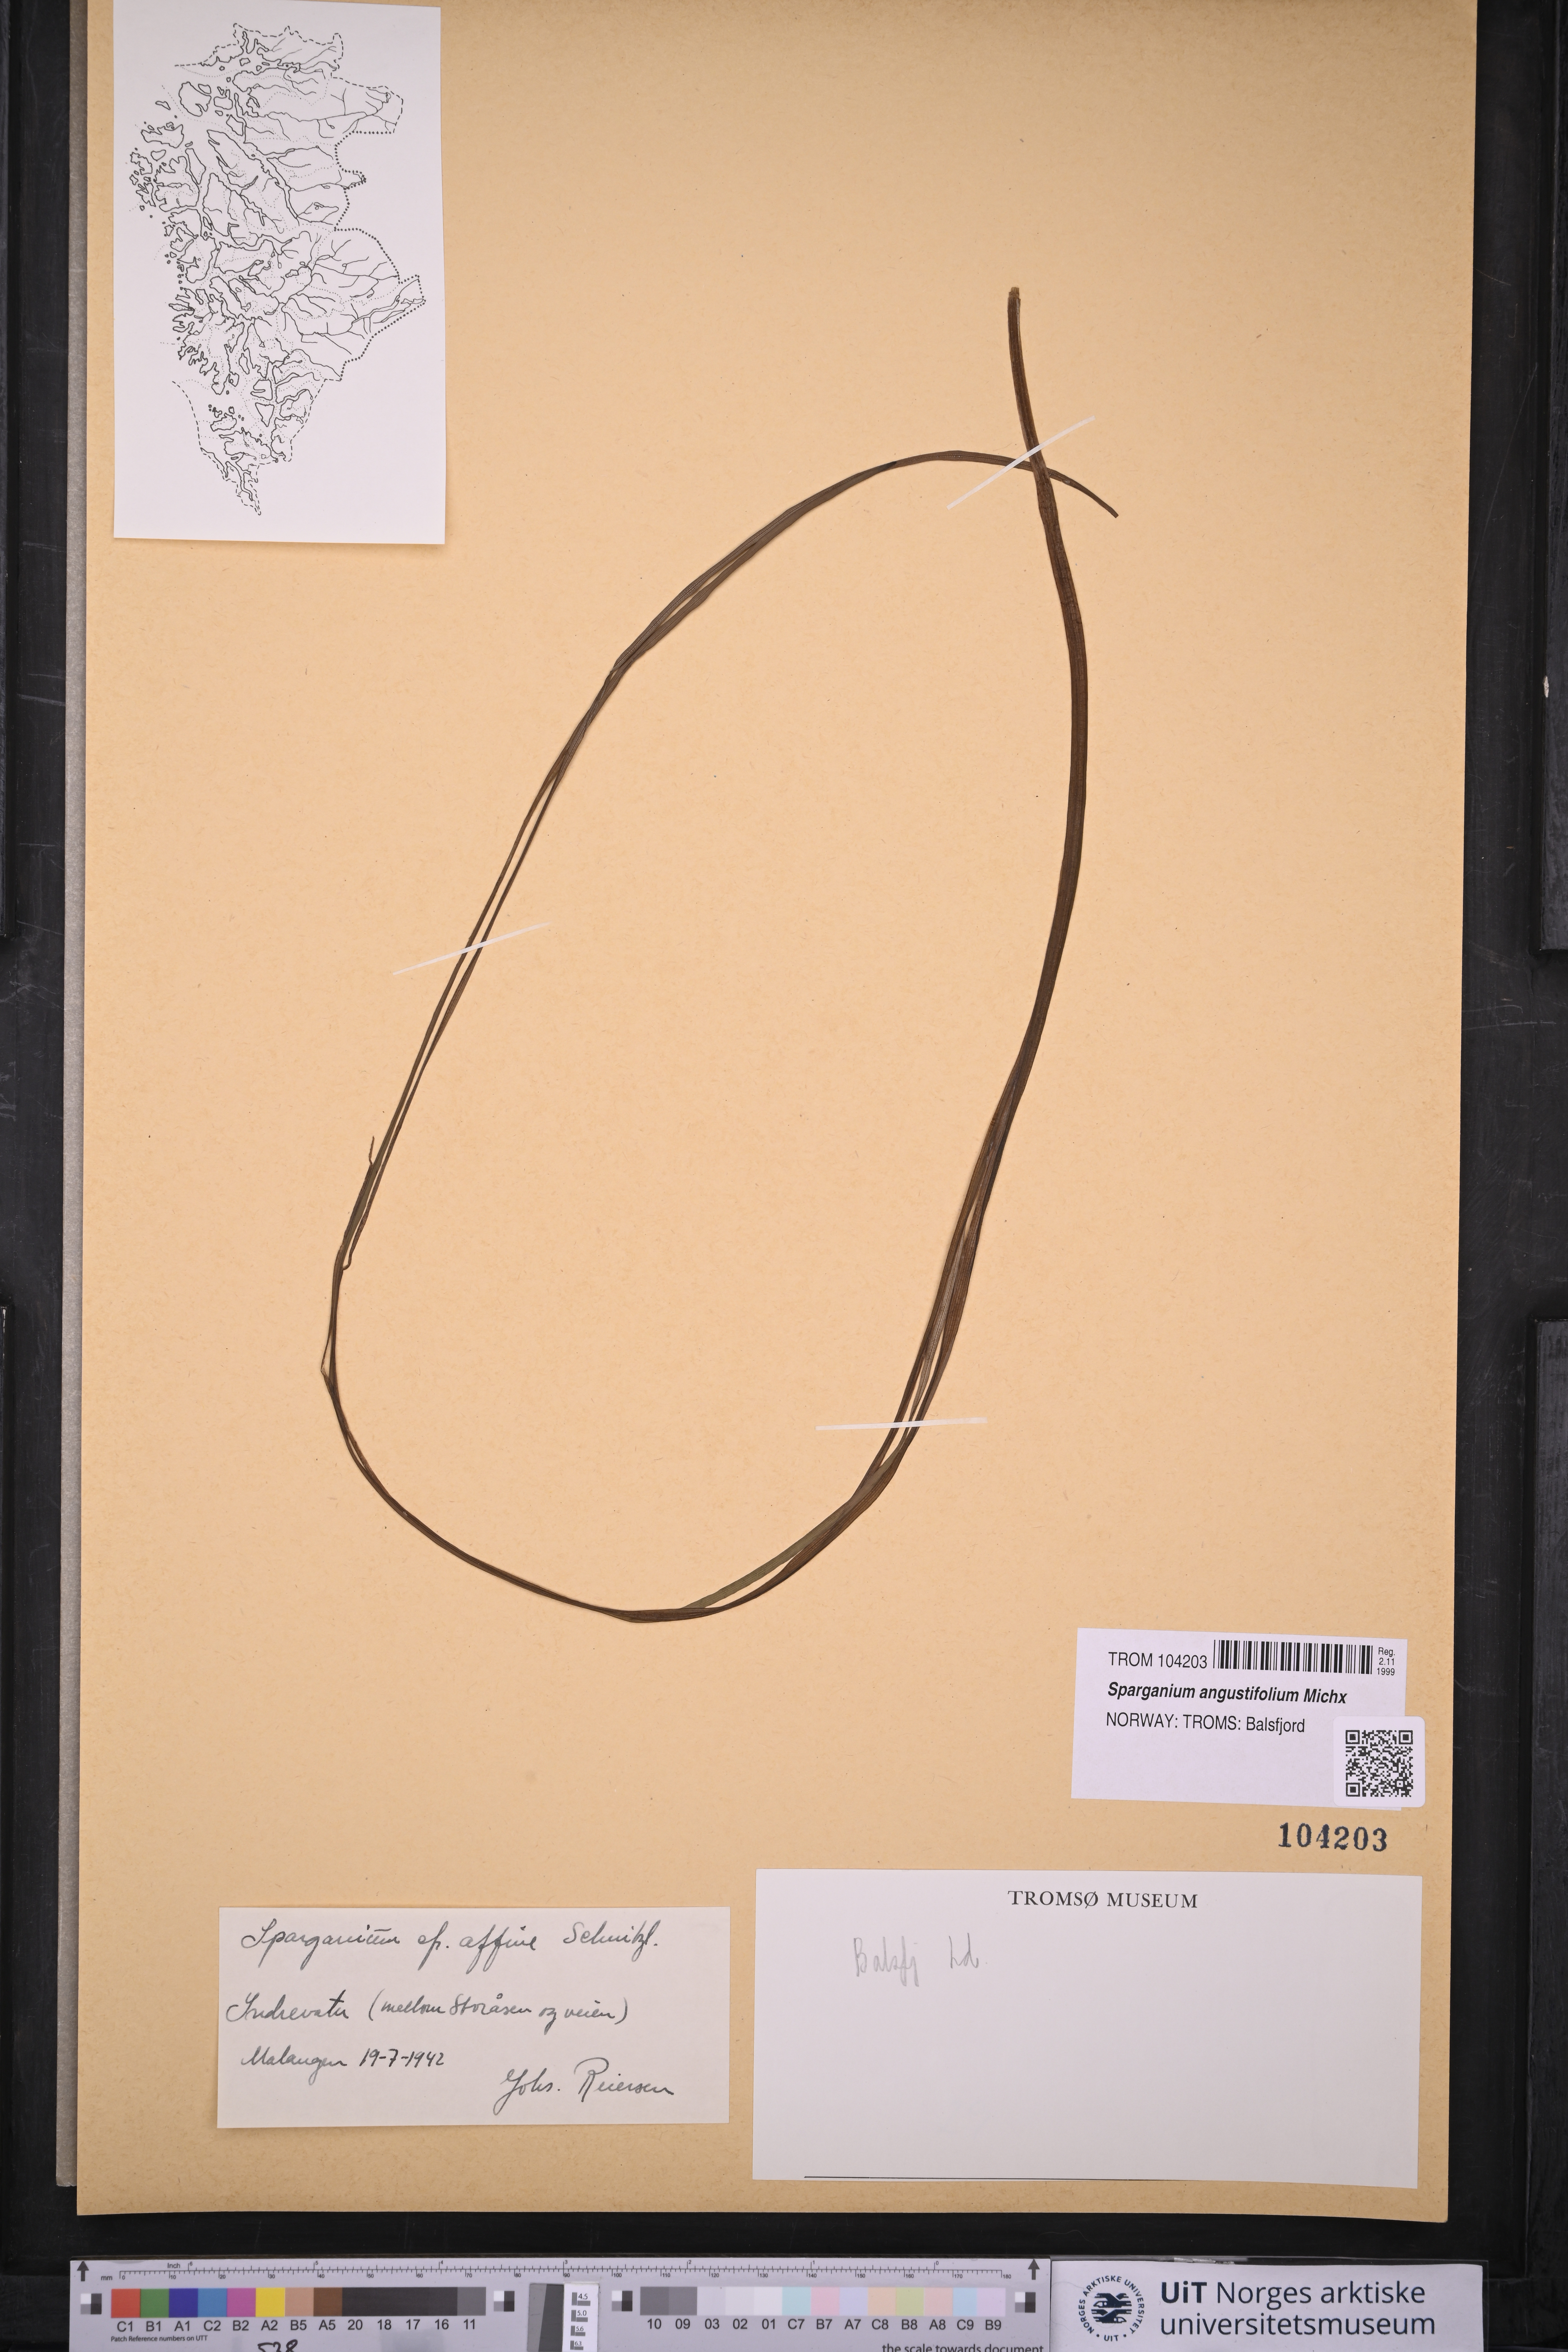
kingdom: Plantae
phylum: Tracheophyta
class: Liliopsida
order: Poales
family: Typhaceae
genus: Sparganium
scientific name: Sparganium angustifolium
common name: Floating bur-reed
